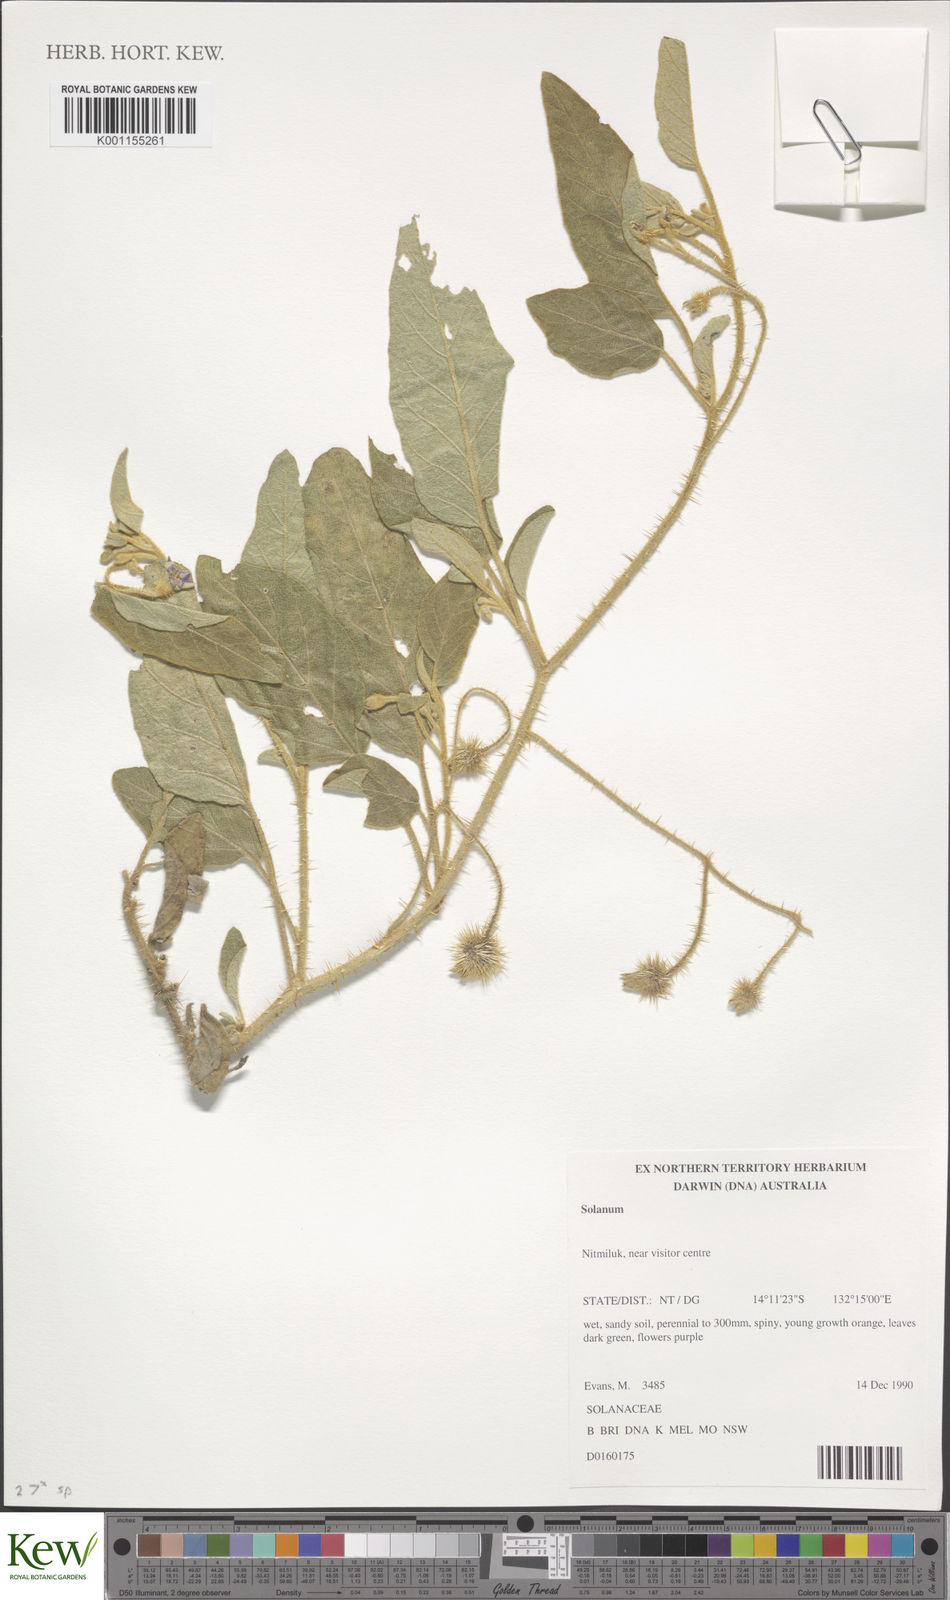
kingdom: Plantae
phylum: Tracheophyta
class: Magnoliopsida
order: Solanales
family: Solanaceae
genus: Solanum
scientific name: Solanum lucani
